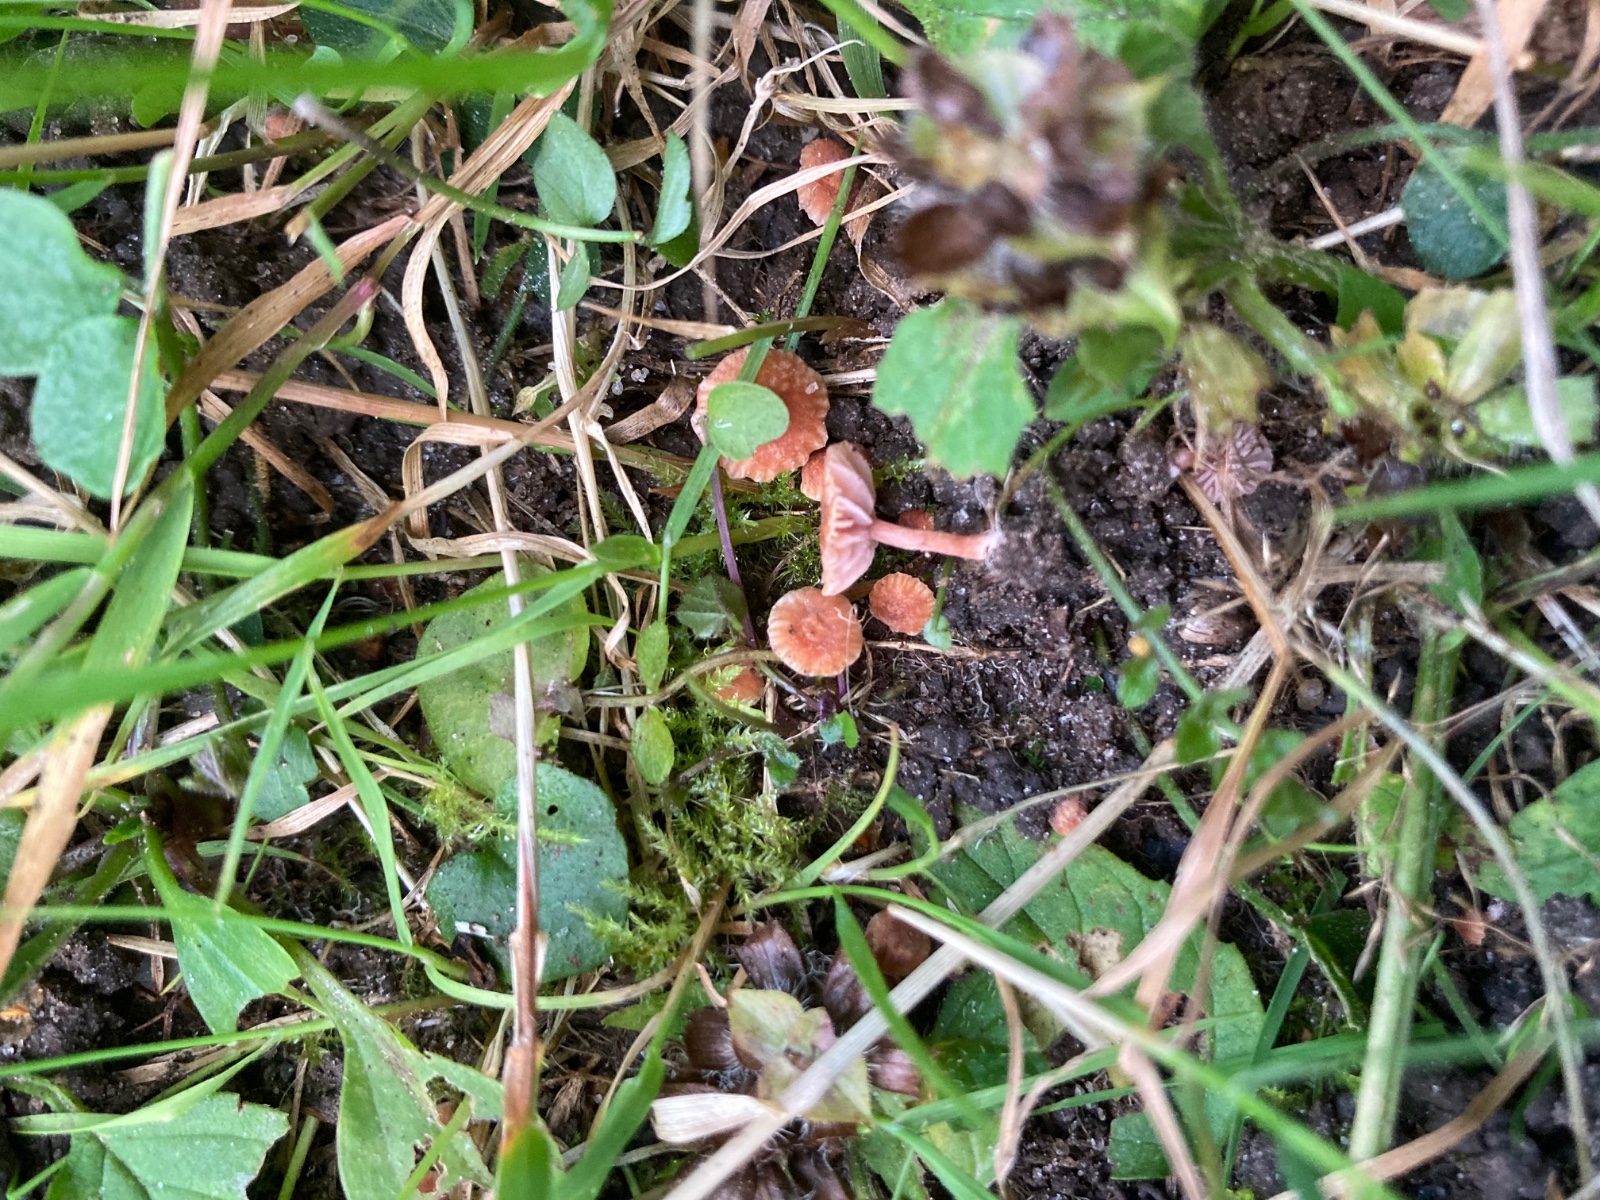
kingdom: Fungi
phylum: Basidiomycota
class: Agaricomycetes
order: Agaricales
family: Hydnangiaceae
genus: Laccaria
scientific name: Laccaria tortilis
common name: krybende ametysthat
